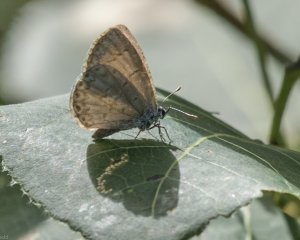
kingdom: Animalia
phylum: Arthropoda
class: Insecta
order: Lepidoptera
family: Lycaenidae
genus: Cyaniris
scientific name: Cyaniris neglecta
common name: Summer Azure
